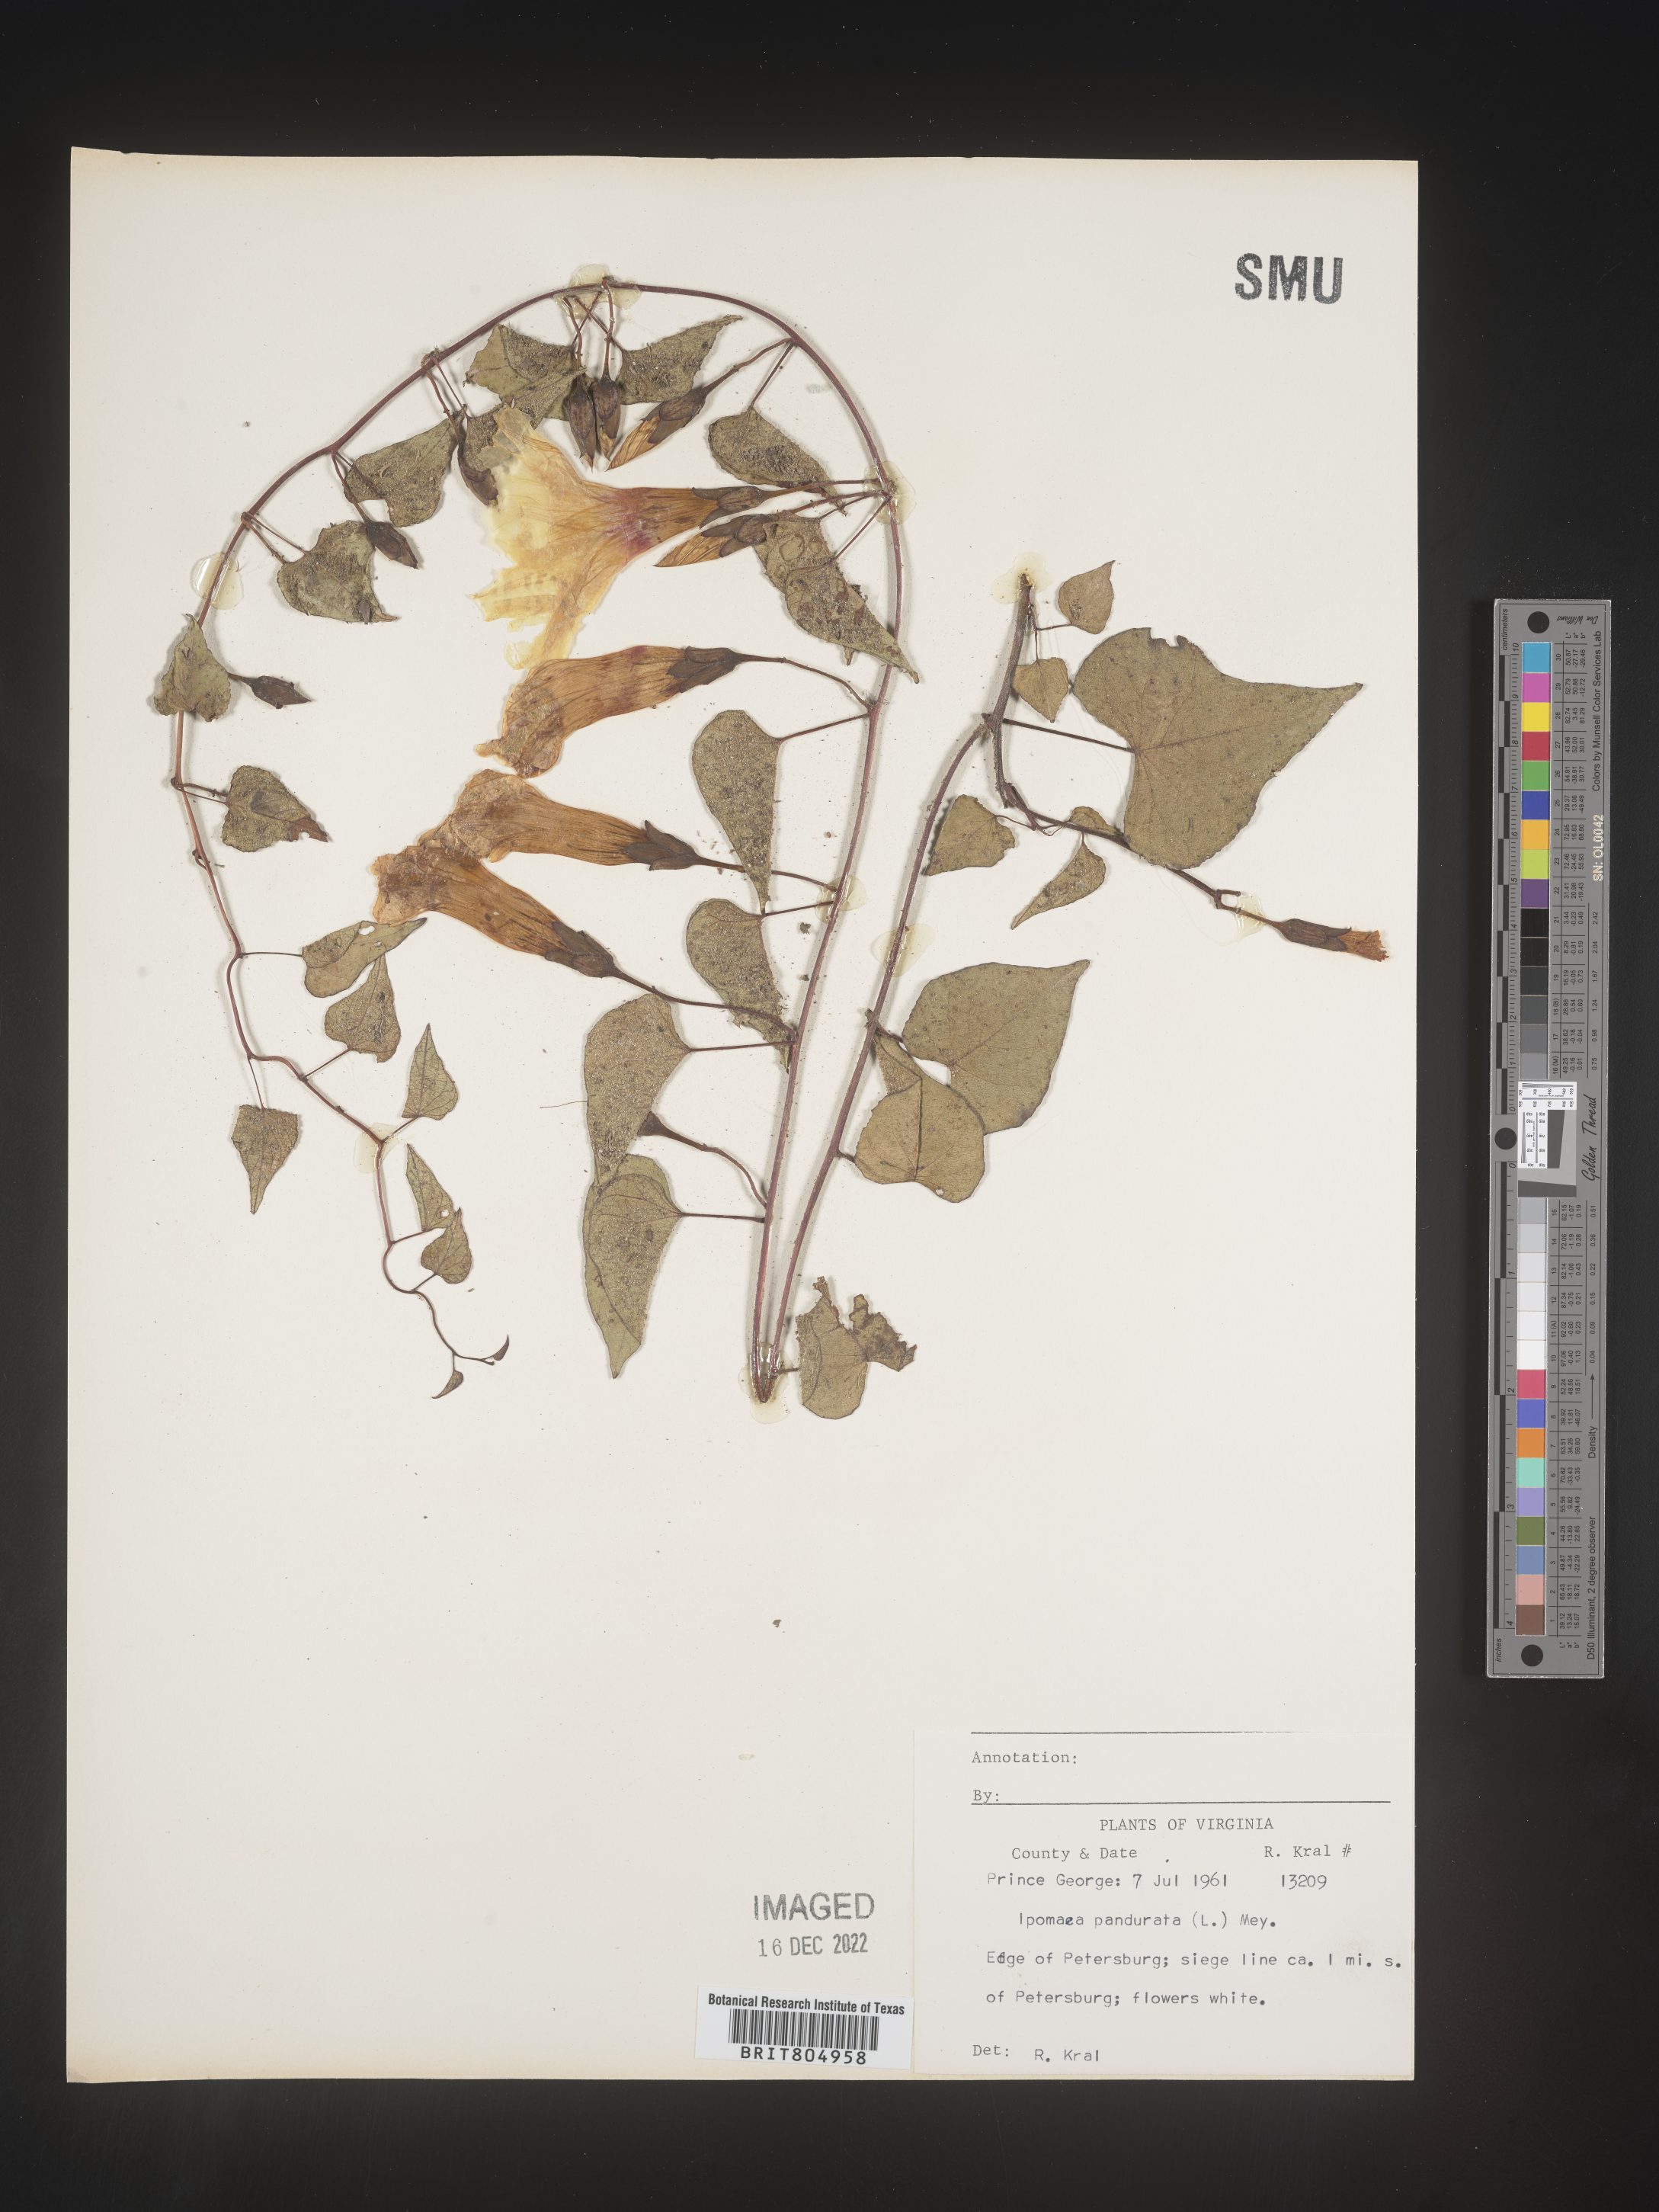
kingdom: Plantae
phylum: Tracheophyta
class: Magnoliopsida
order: Solanales
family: Convolvulaceae
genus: Ipomoea
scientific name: Ipomoea pandurata
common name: Man-of-the-earth
